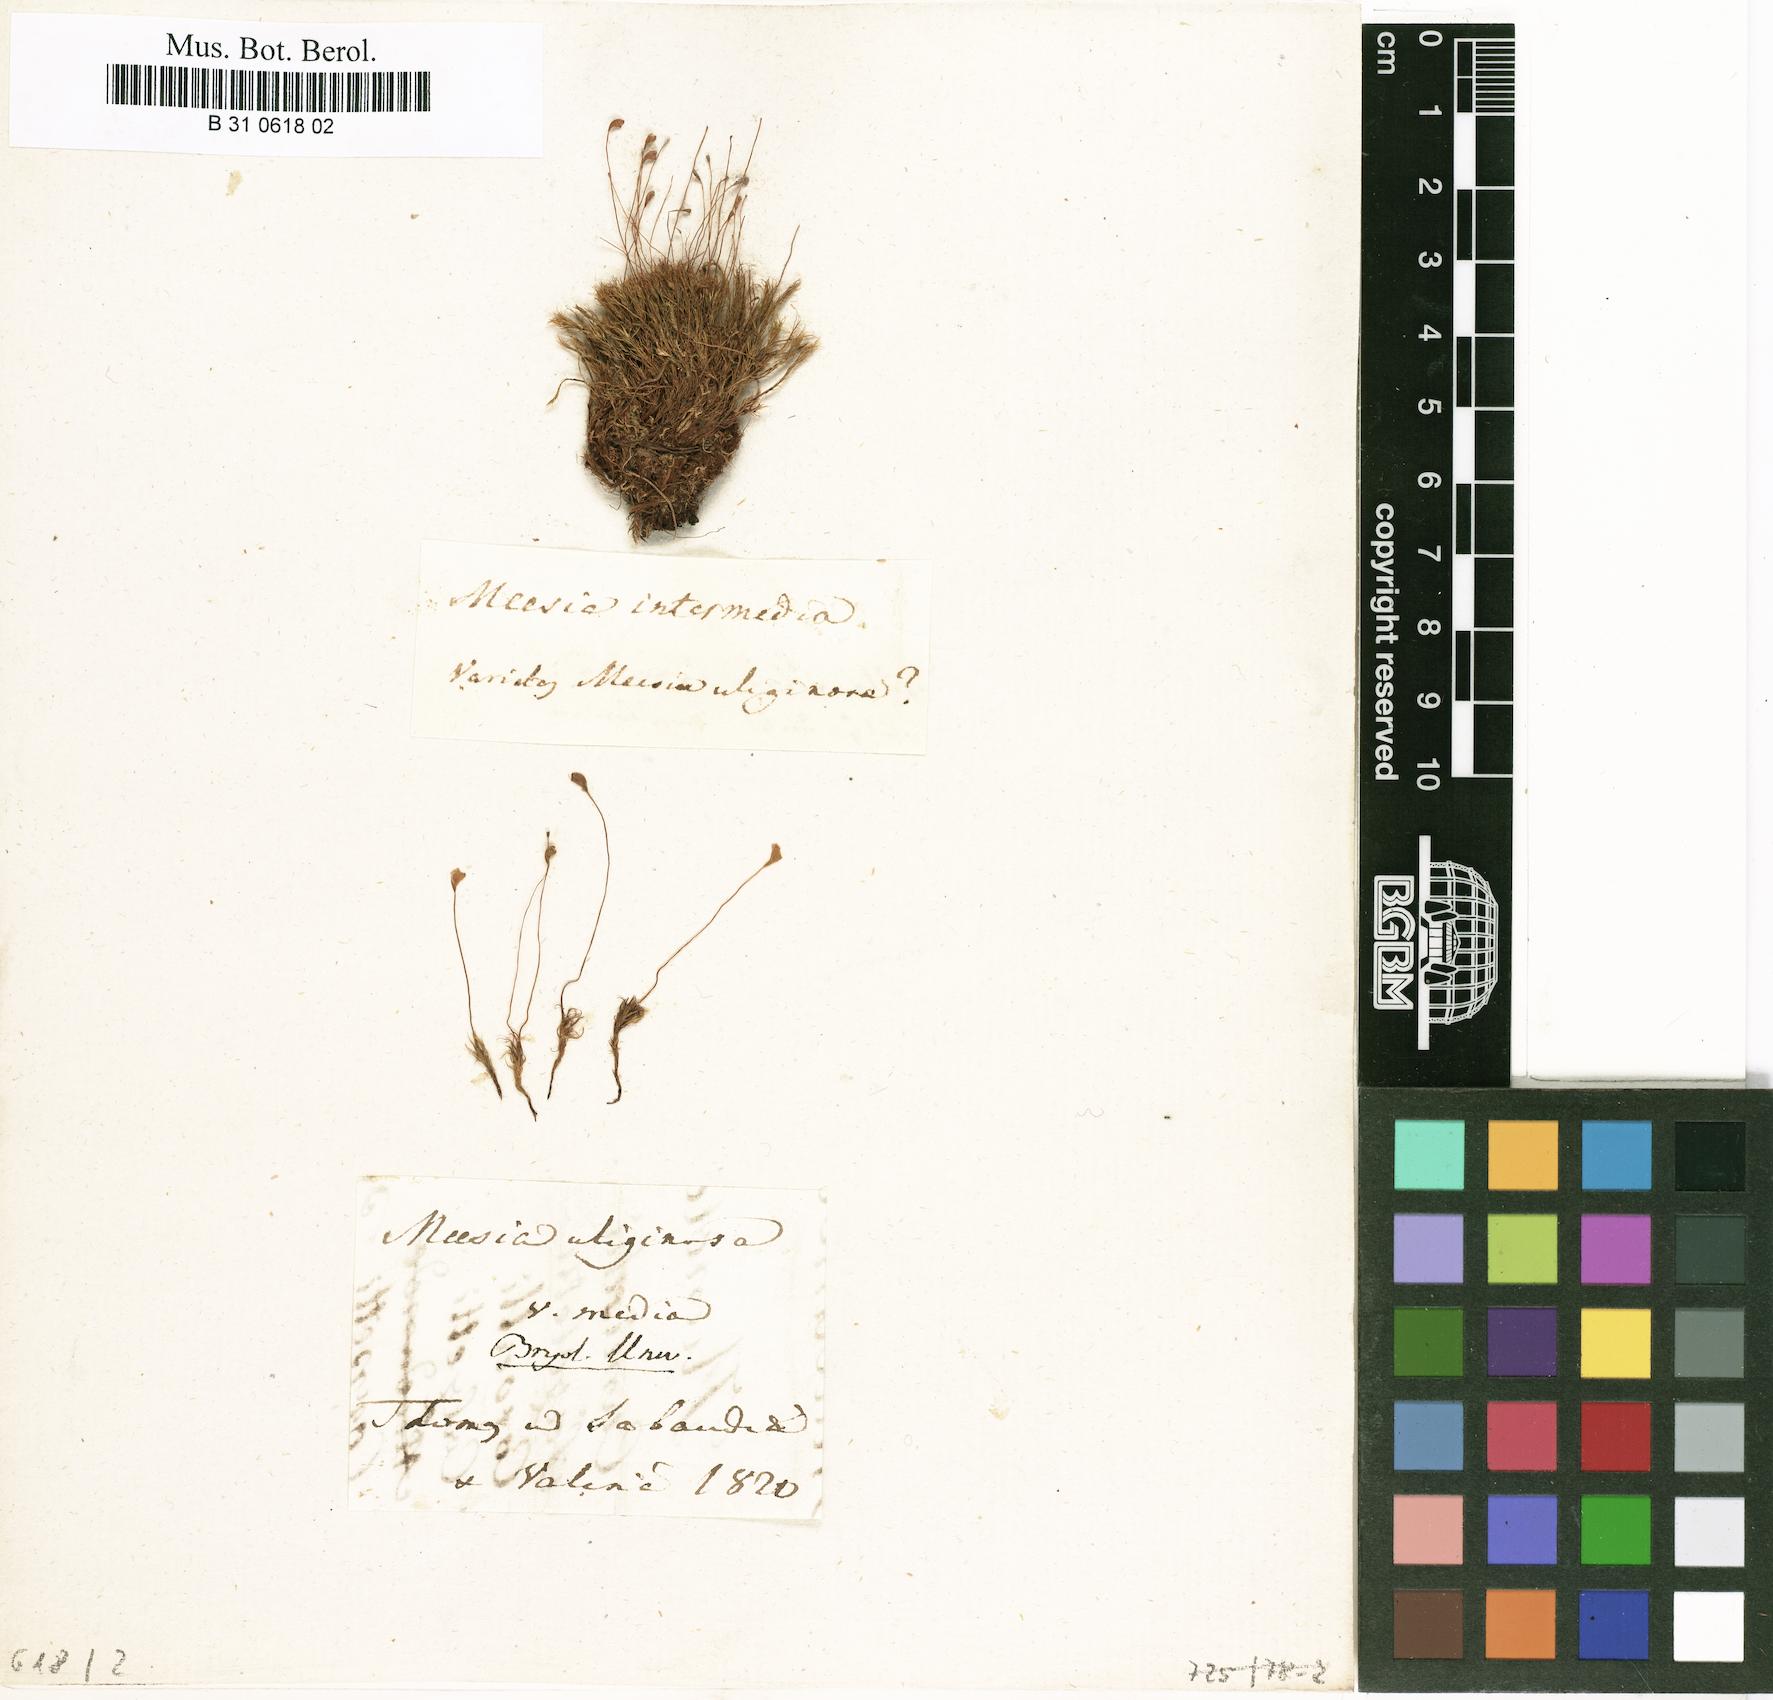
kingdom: Plantae
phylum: Bryophyta
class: Bryopsida
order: Splachnales
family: Meesiaceae
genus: Meesia
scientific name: Meesia uliginosa
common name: Capillary thread moss
